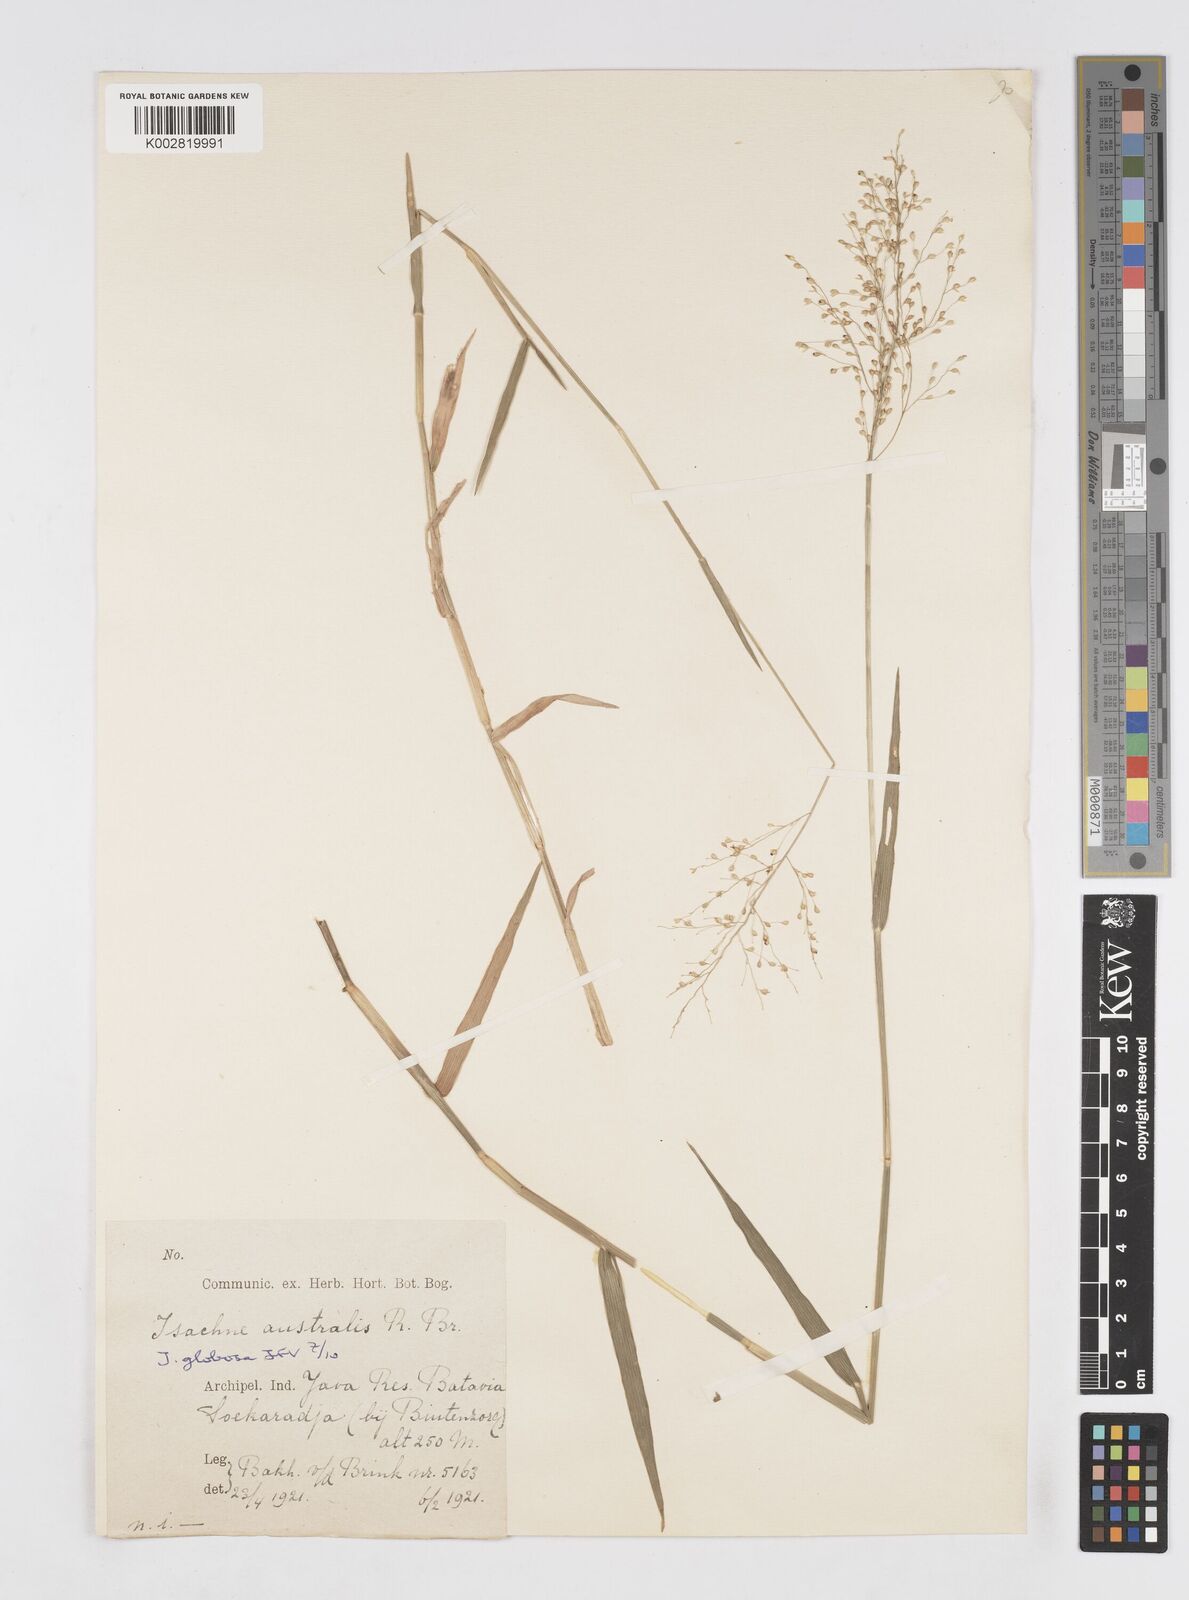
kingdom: Plantae
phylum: Tracheophyta
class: Liliopsida
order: Poales
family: Poaceae
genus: Isachne
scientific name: Isachne globosa
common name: Swamp millet
